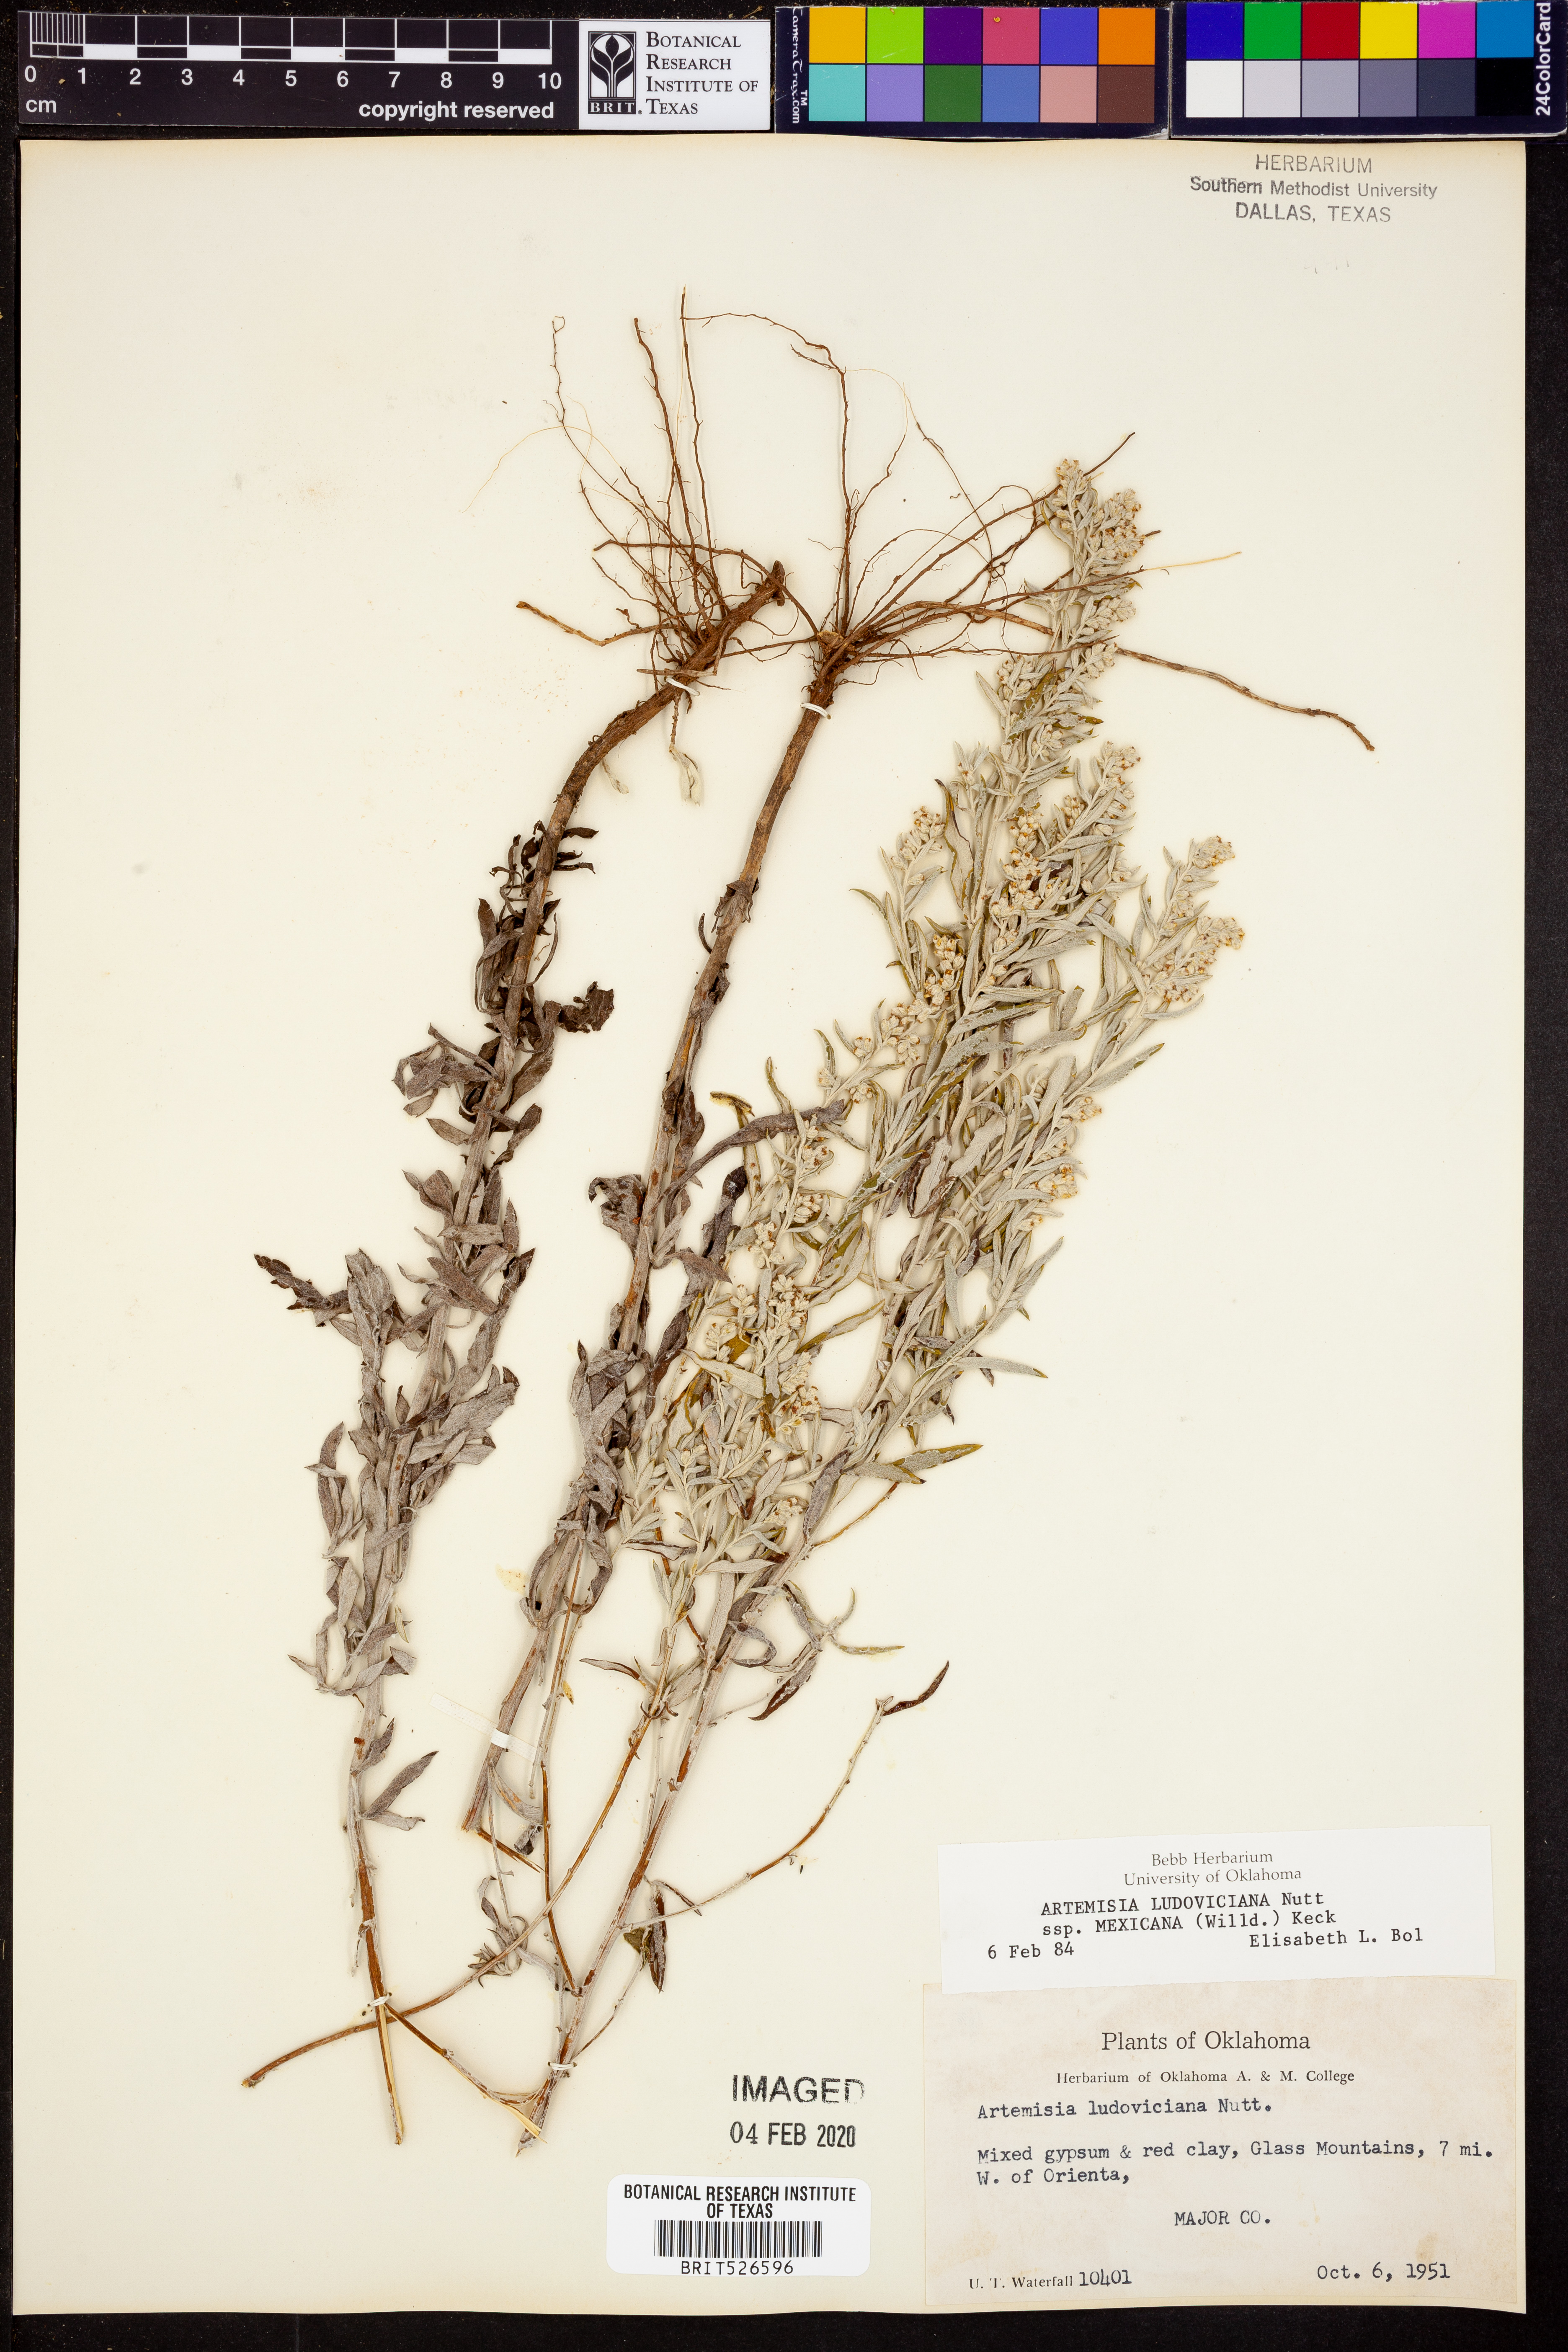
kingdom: Plantae
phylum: Tracheophyta
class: Magnoliopsida
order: Asterales
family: Asteraceae
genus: Artemisia
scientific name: Artemisia ludoviciana
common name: Western mugwort
